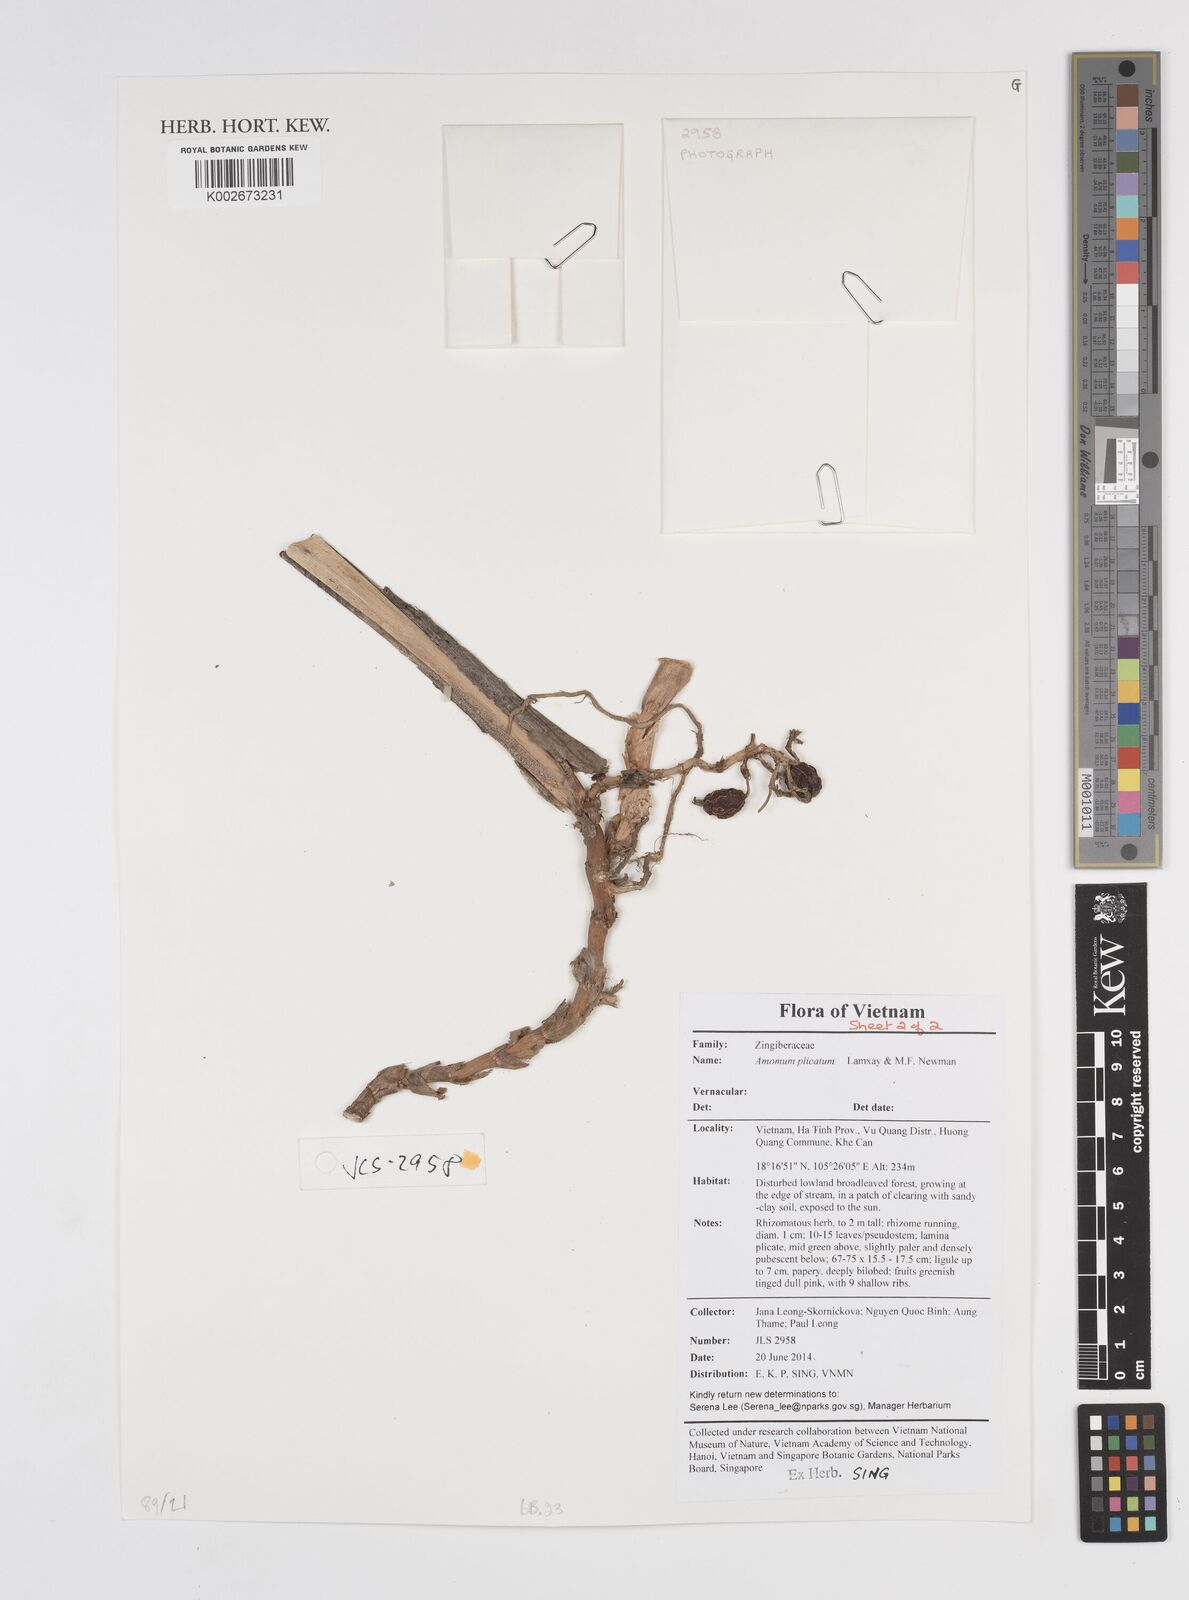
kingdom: Plantae
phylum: Tracheophyta
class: Liliopsida
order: Zingiberales
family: Zingiberaceae
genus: Amomum
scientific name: Amomum plicatum
